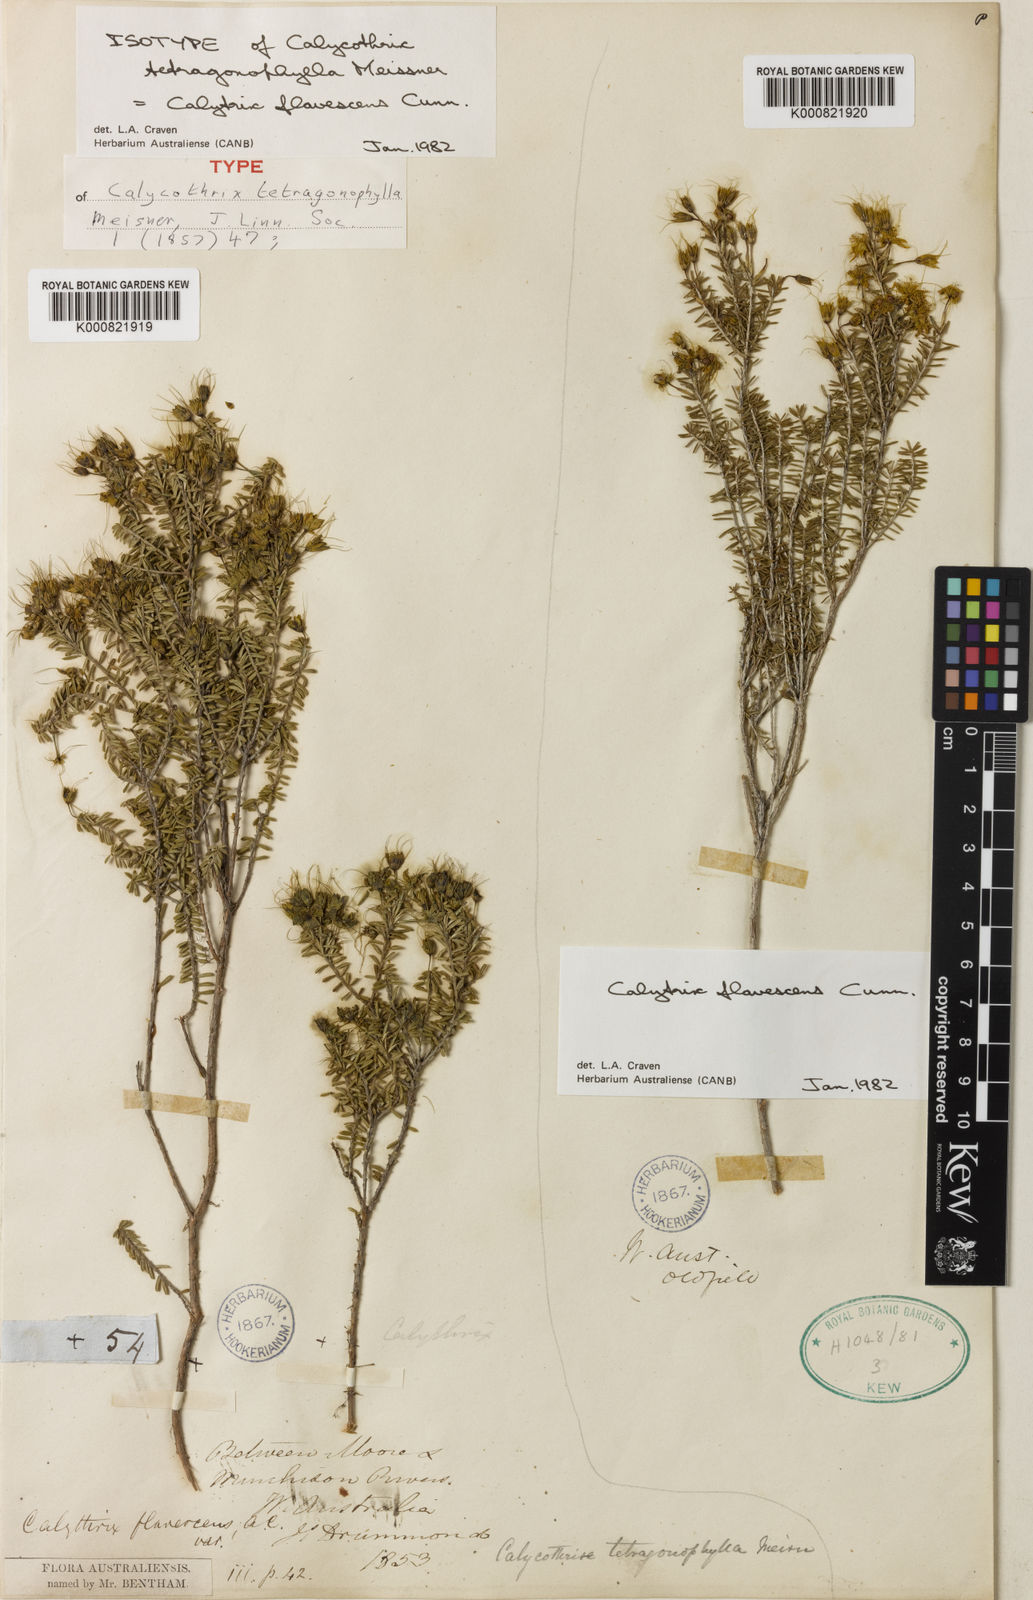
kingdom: Plantae
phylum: Tracheophyta
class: Magnoliopsida
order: Myrtales
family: Myrtaceae
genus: Calytrix
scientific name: Calytrix flavescens
